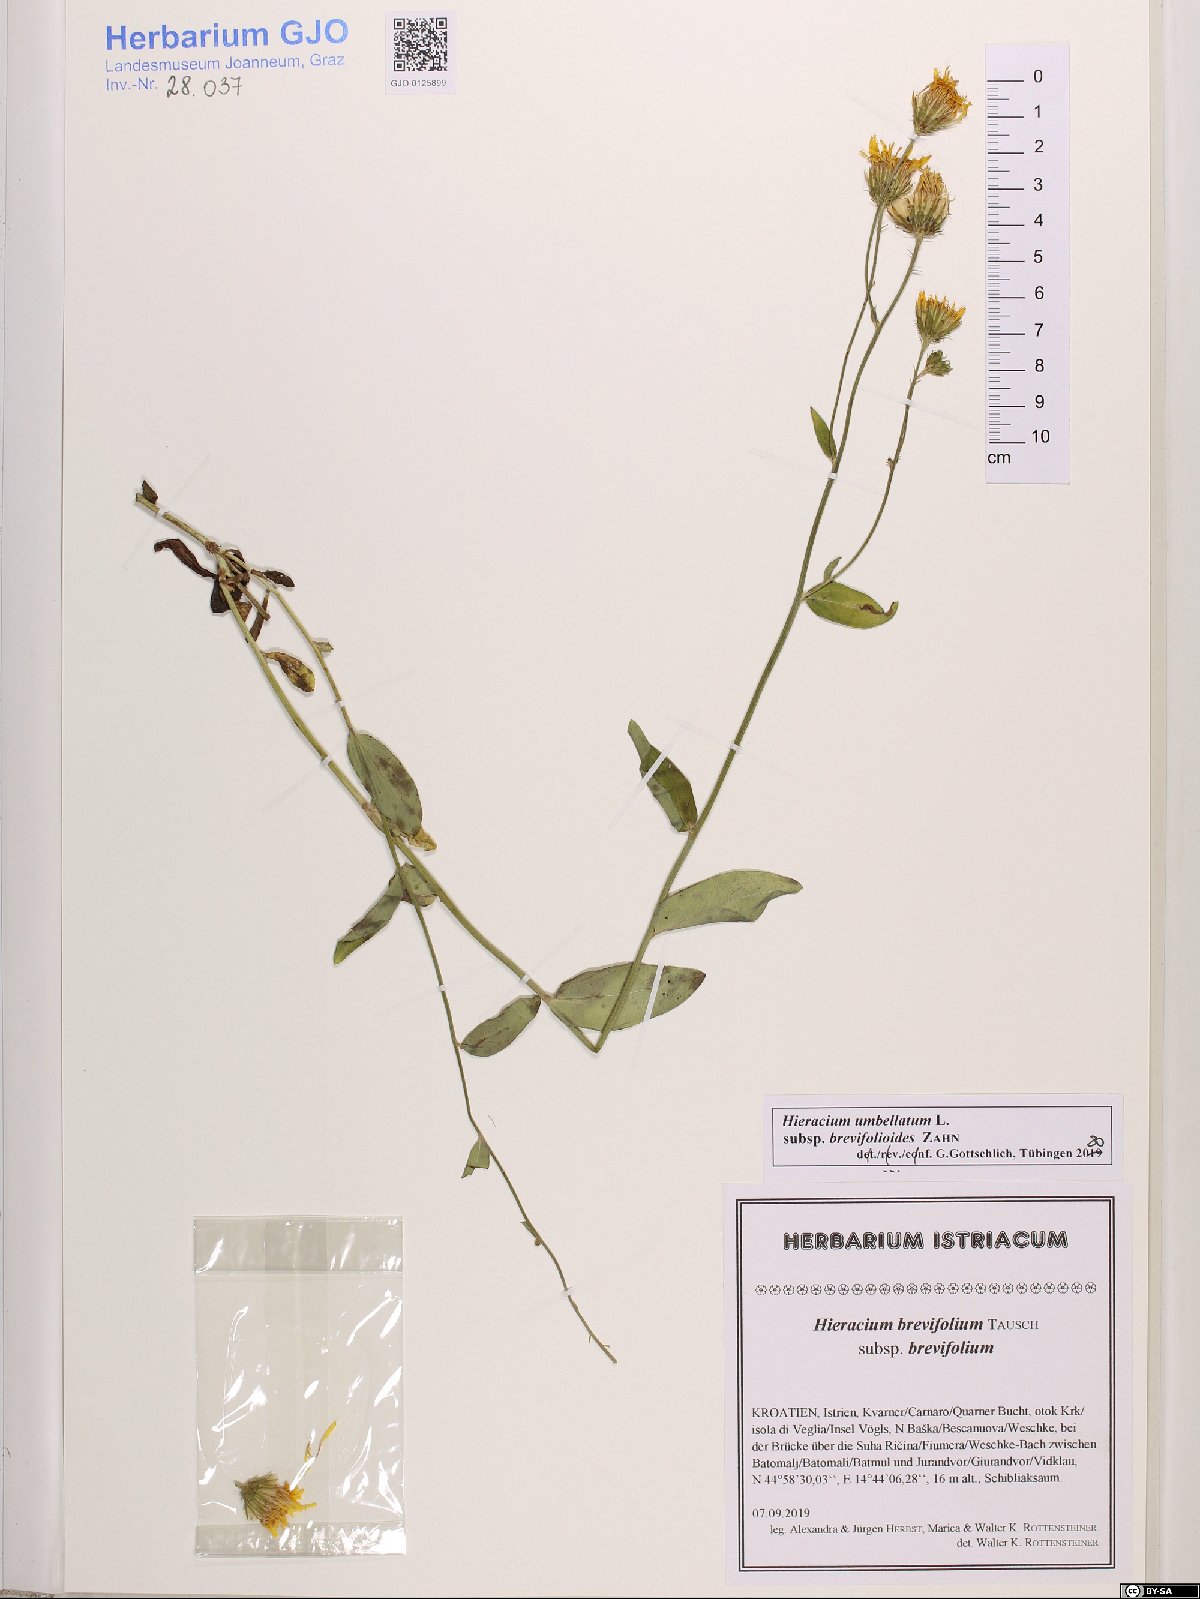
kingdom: Plantae
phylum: Tracheophyta
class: Magnoliopsida
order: Asterales
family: Asteraceae
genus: Hieracium
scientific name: Hieracium umbellatum
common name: Northern hawkweed
